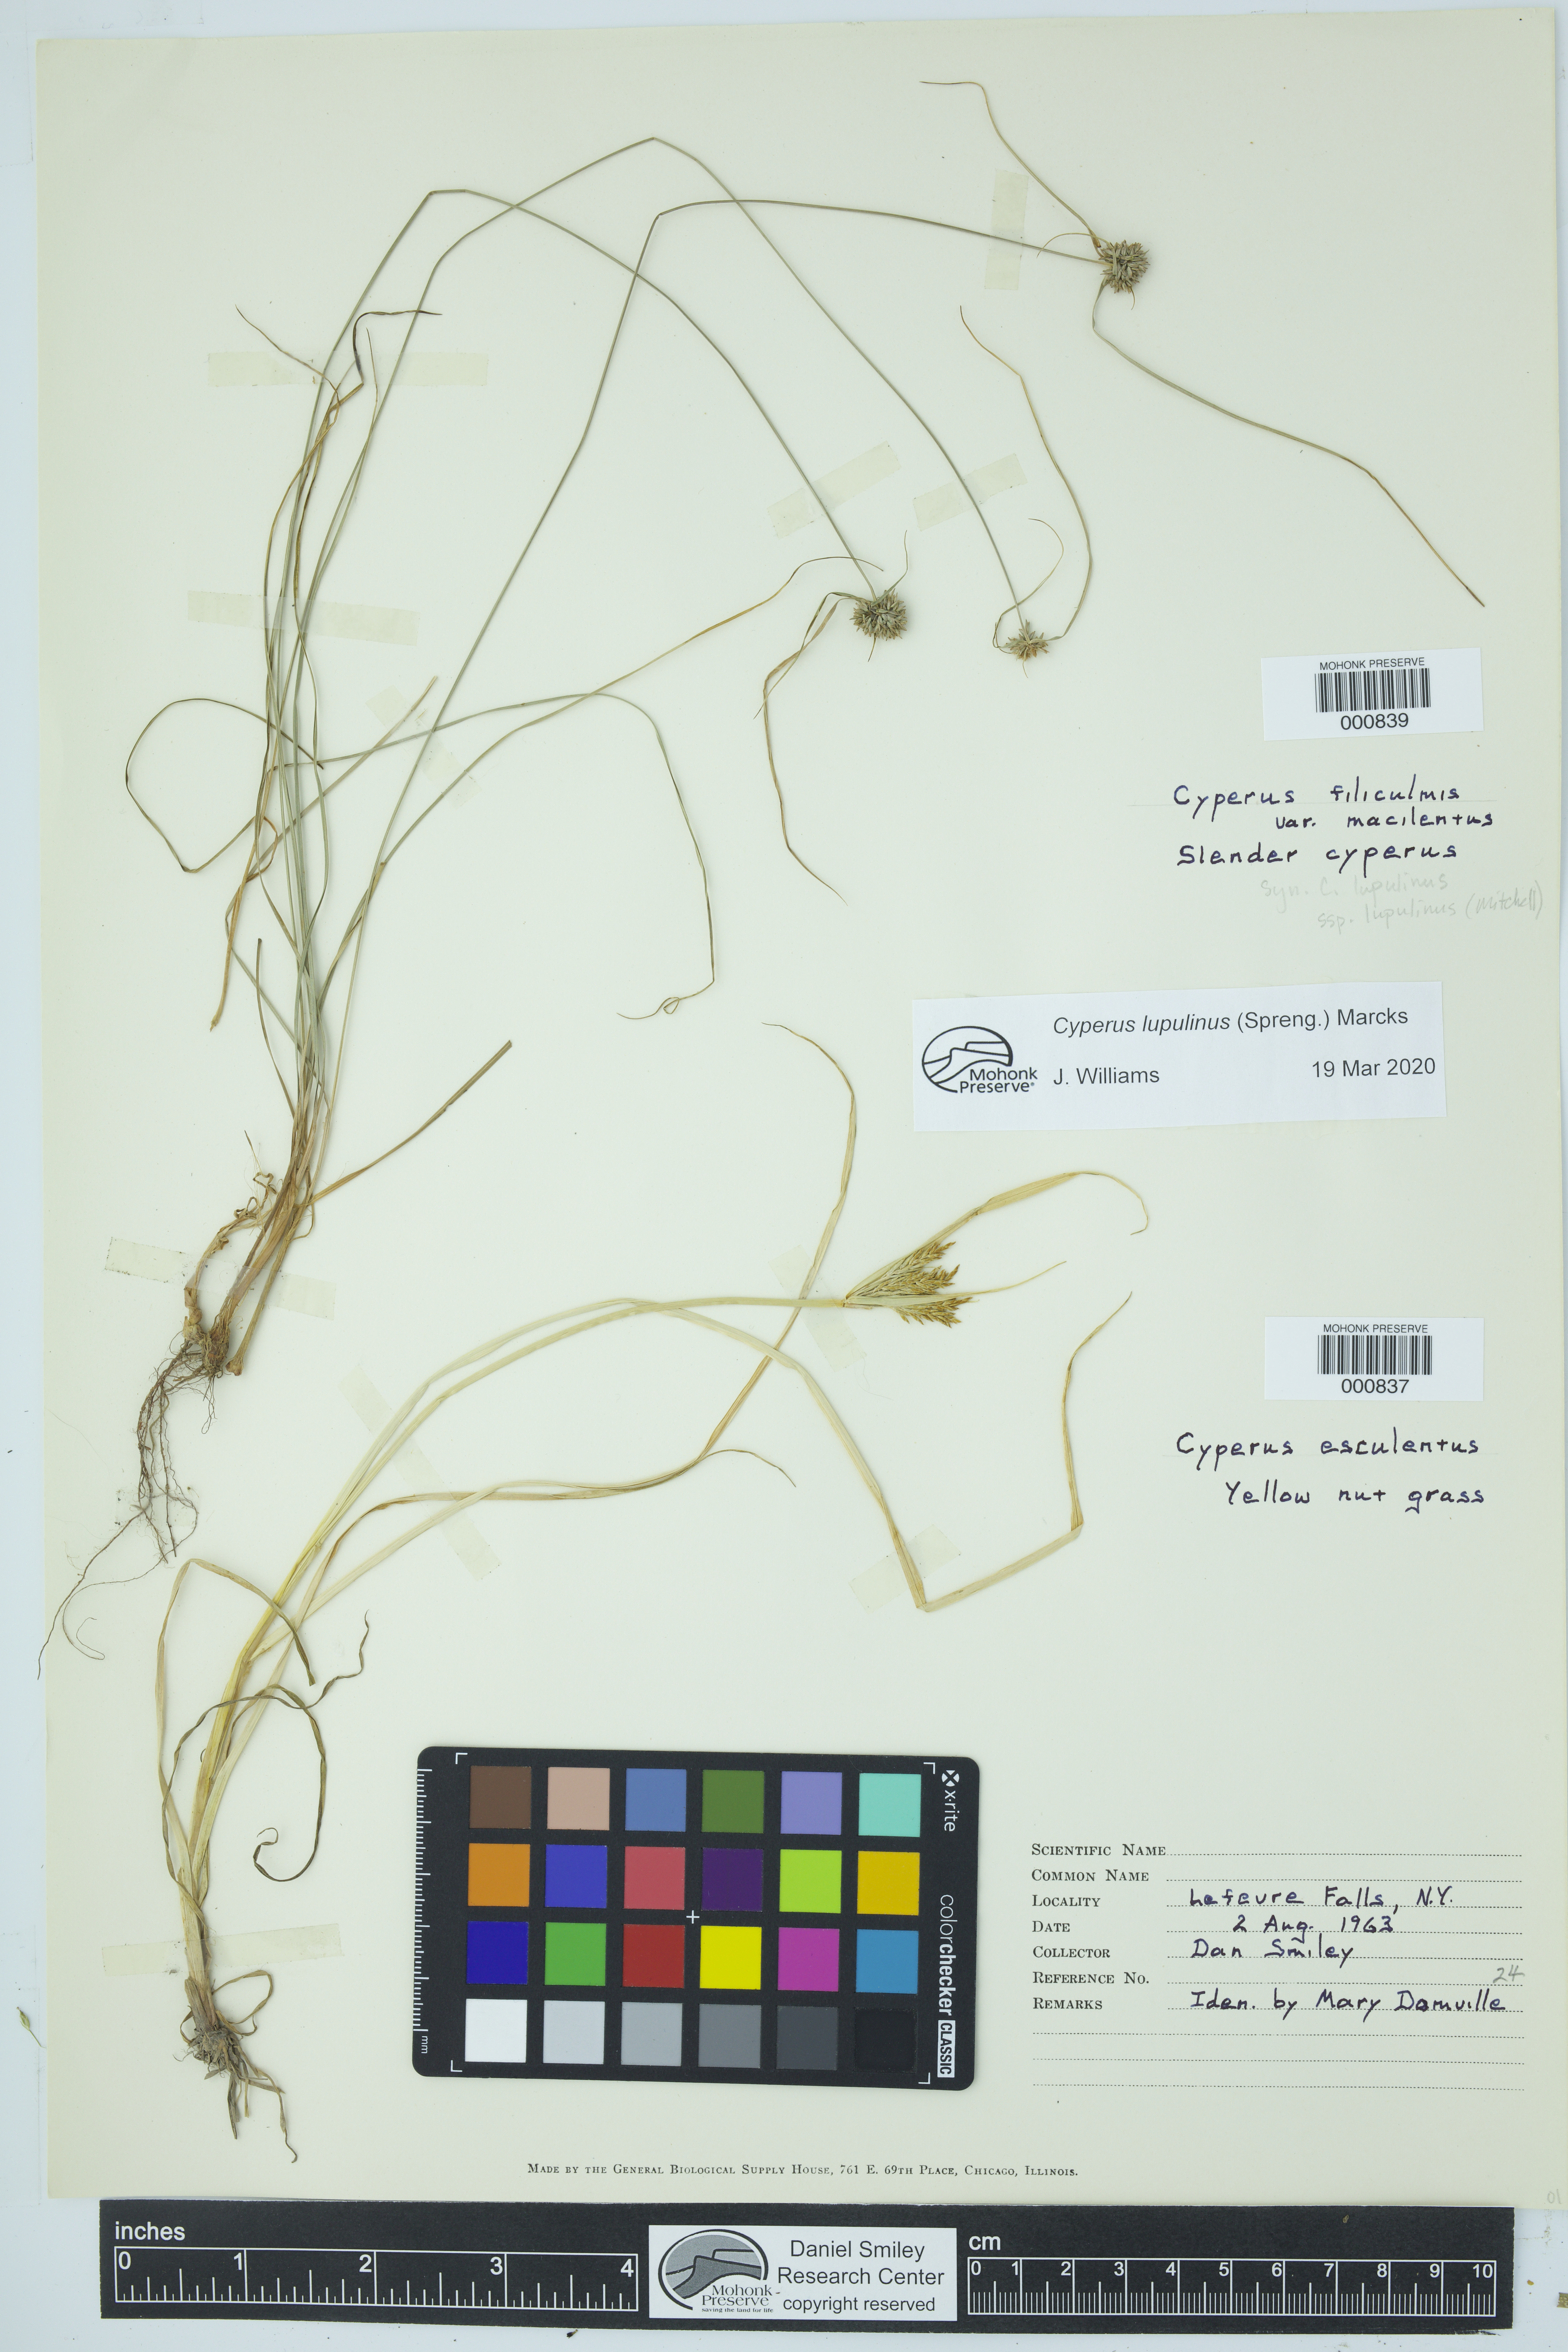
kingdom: Plantae
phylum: Tracheophyta
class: Liliopsida
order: Poales
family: Cyperaceae
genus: Cyperus
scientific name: Cyperus esculentus
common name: Yellow nutsedge
